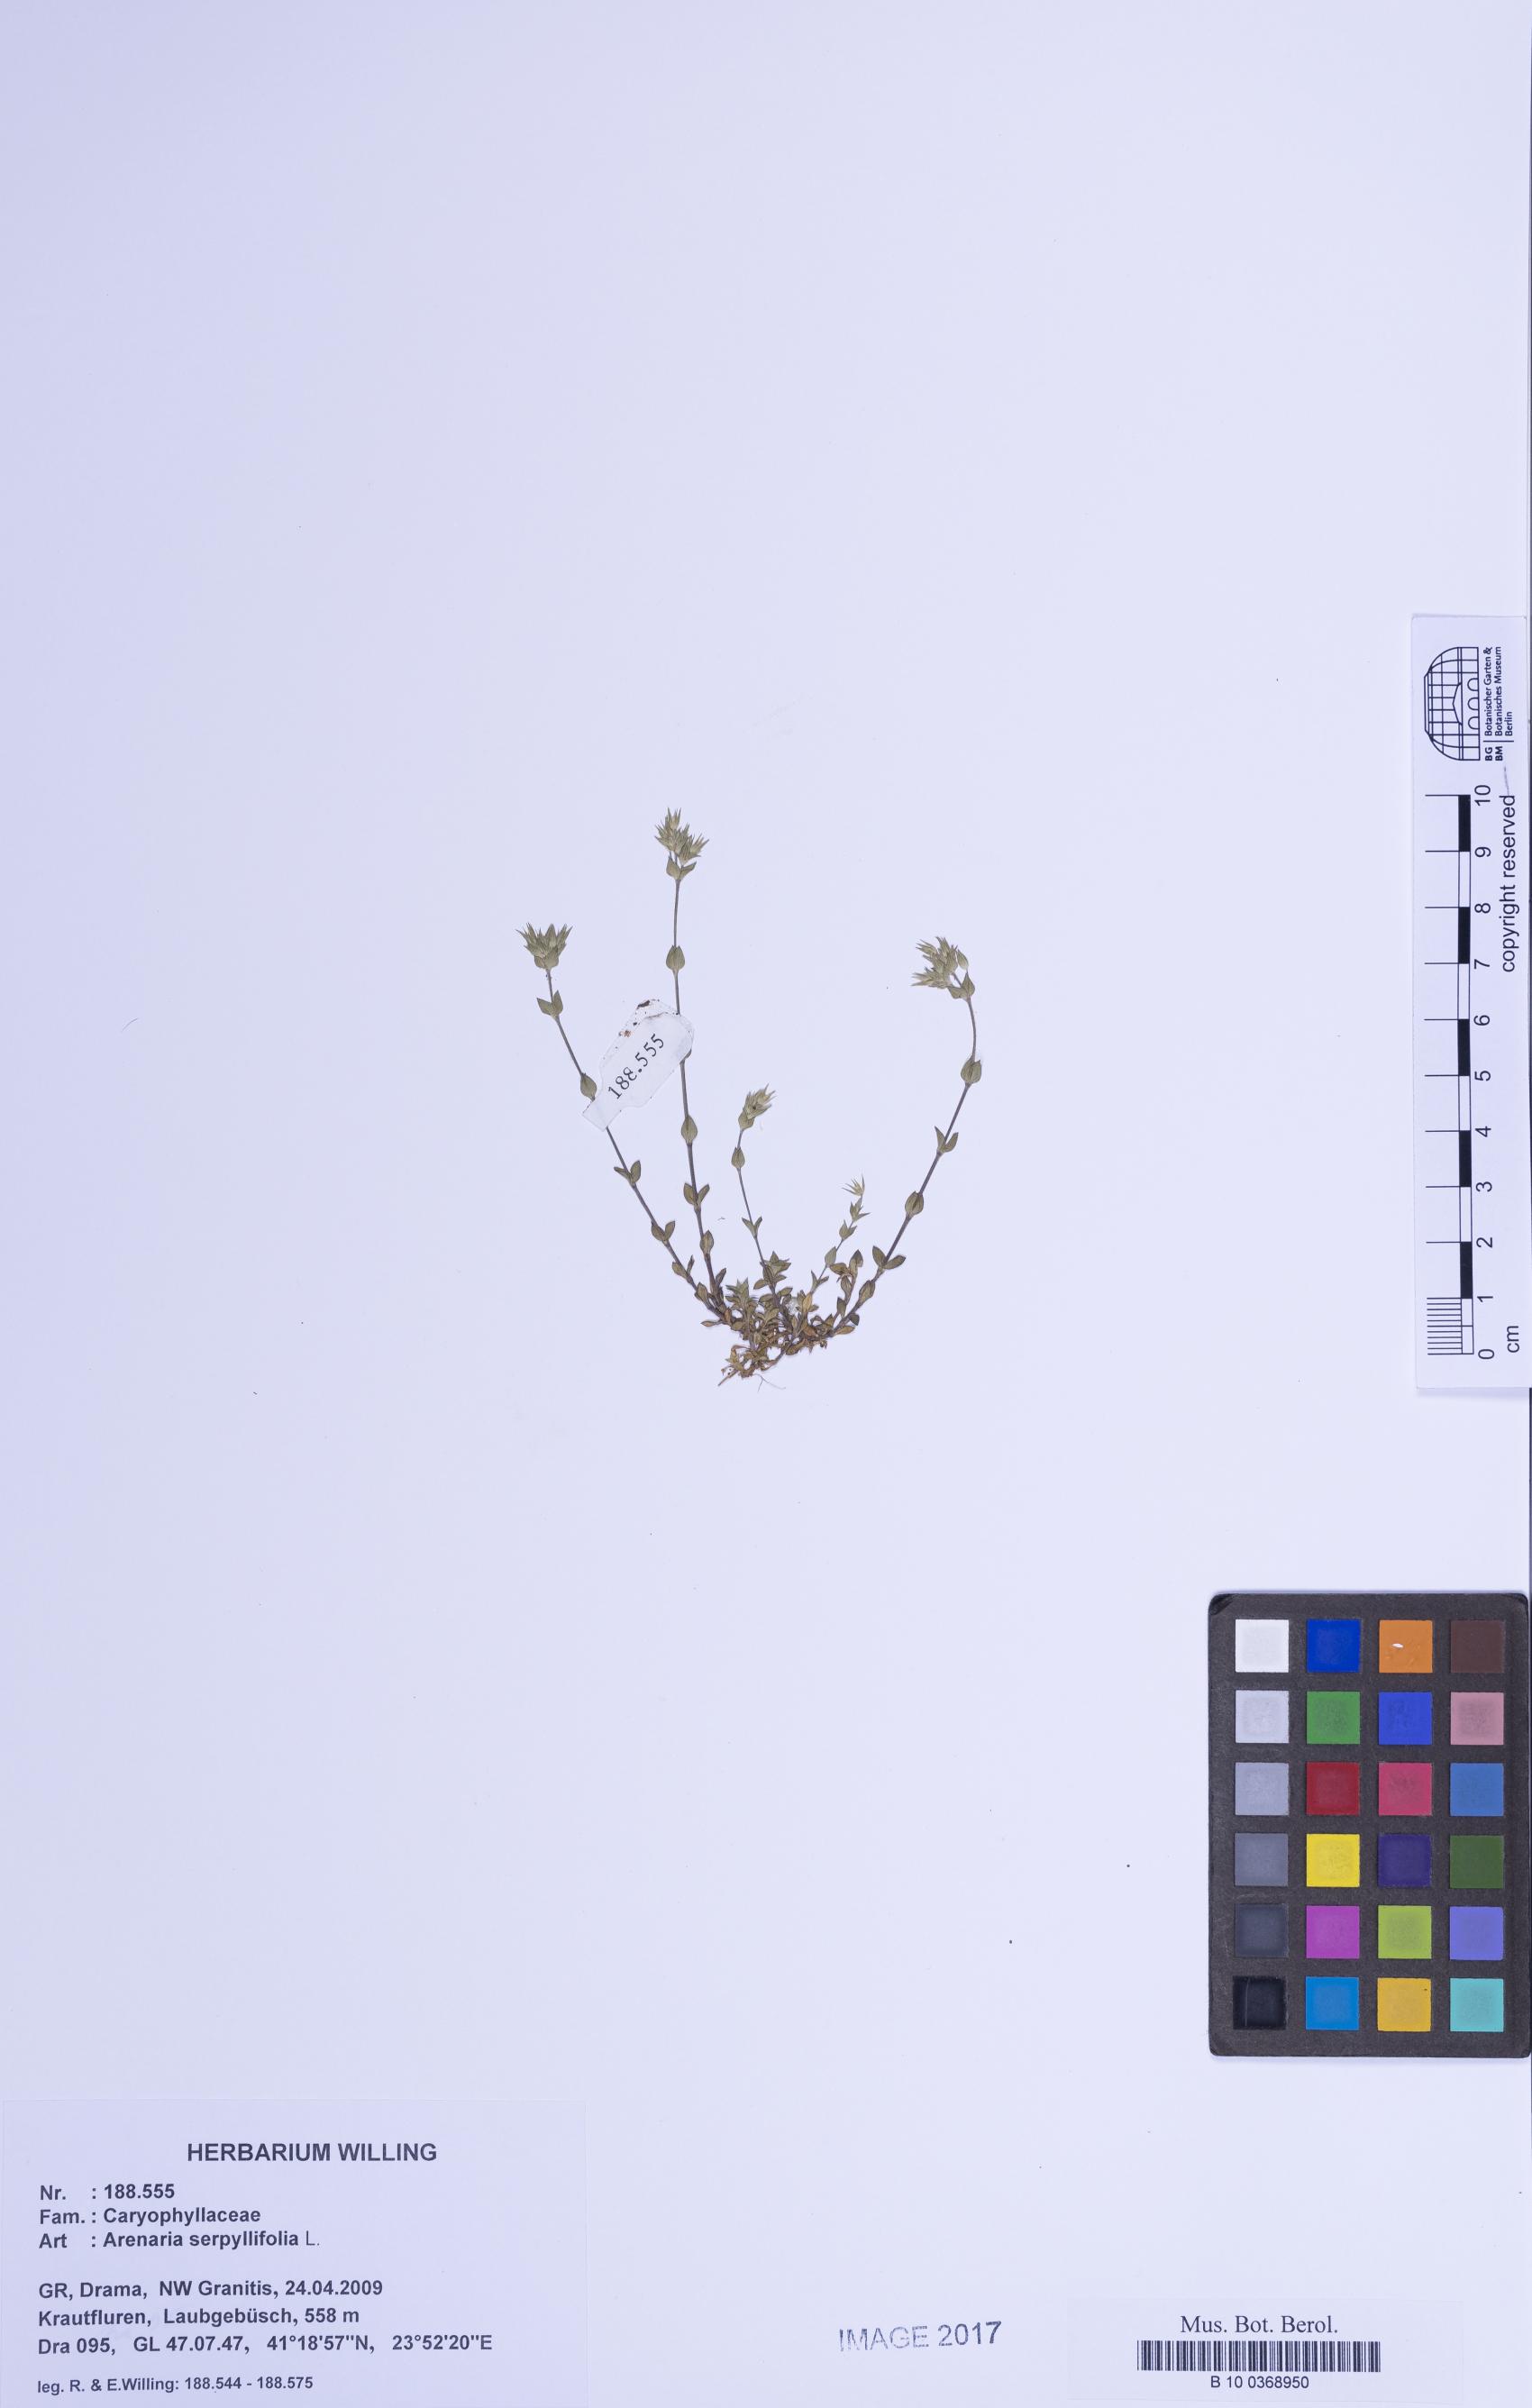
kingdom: Plantae
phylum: Tracheophyta
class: Magnoliopsida
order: Caryophyllales
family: Caryophyllaceae
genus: Arenaria
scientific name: Arenaria serpyllifolia
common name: Thyme-leaved sandwort
